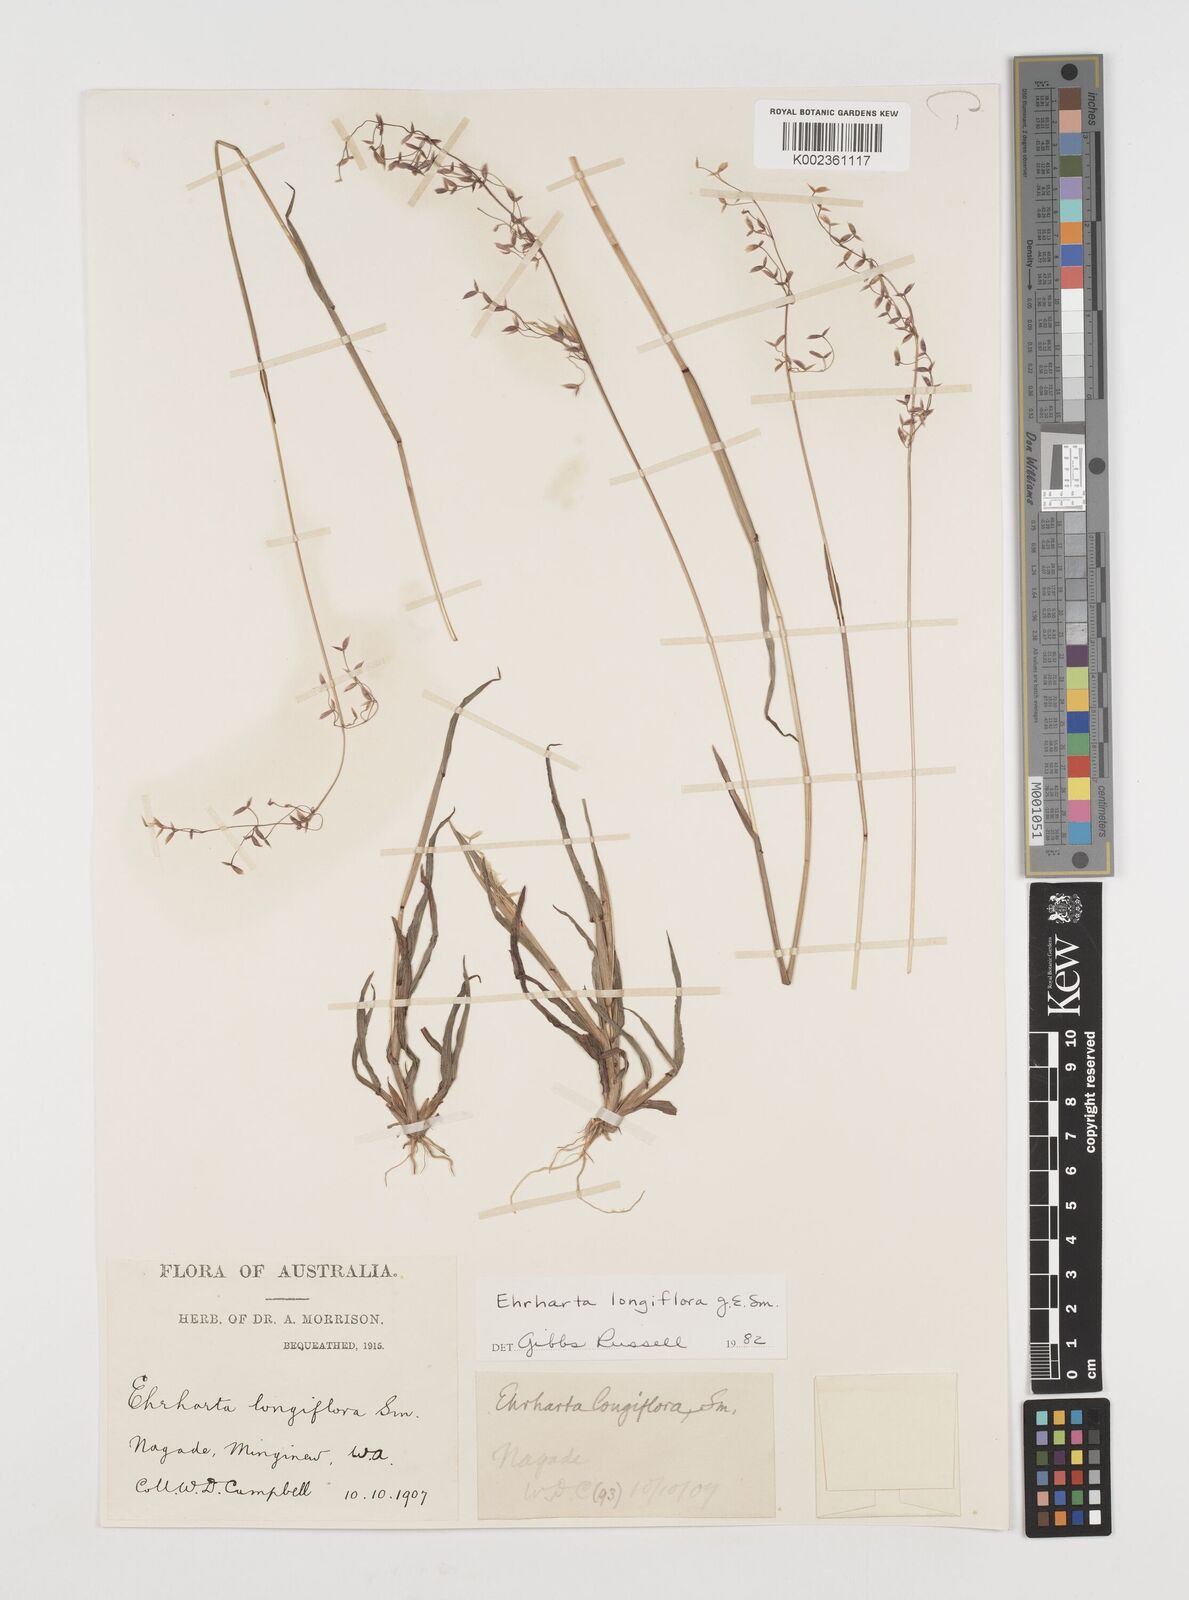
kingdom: Plantae
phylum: Tracheophyta
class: Liliopsida
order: Poales
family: Poaceae
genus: Ehrharta
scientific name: Ehrharta longiflora
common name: Longflowered veldtgrass
